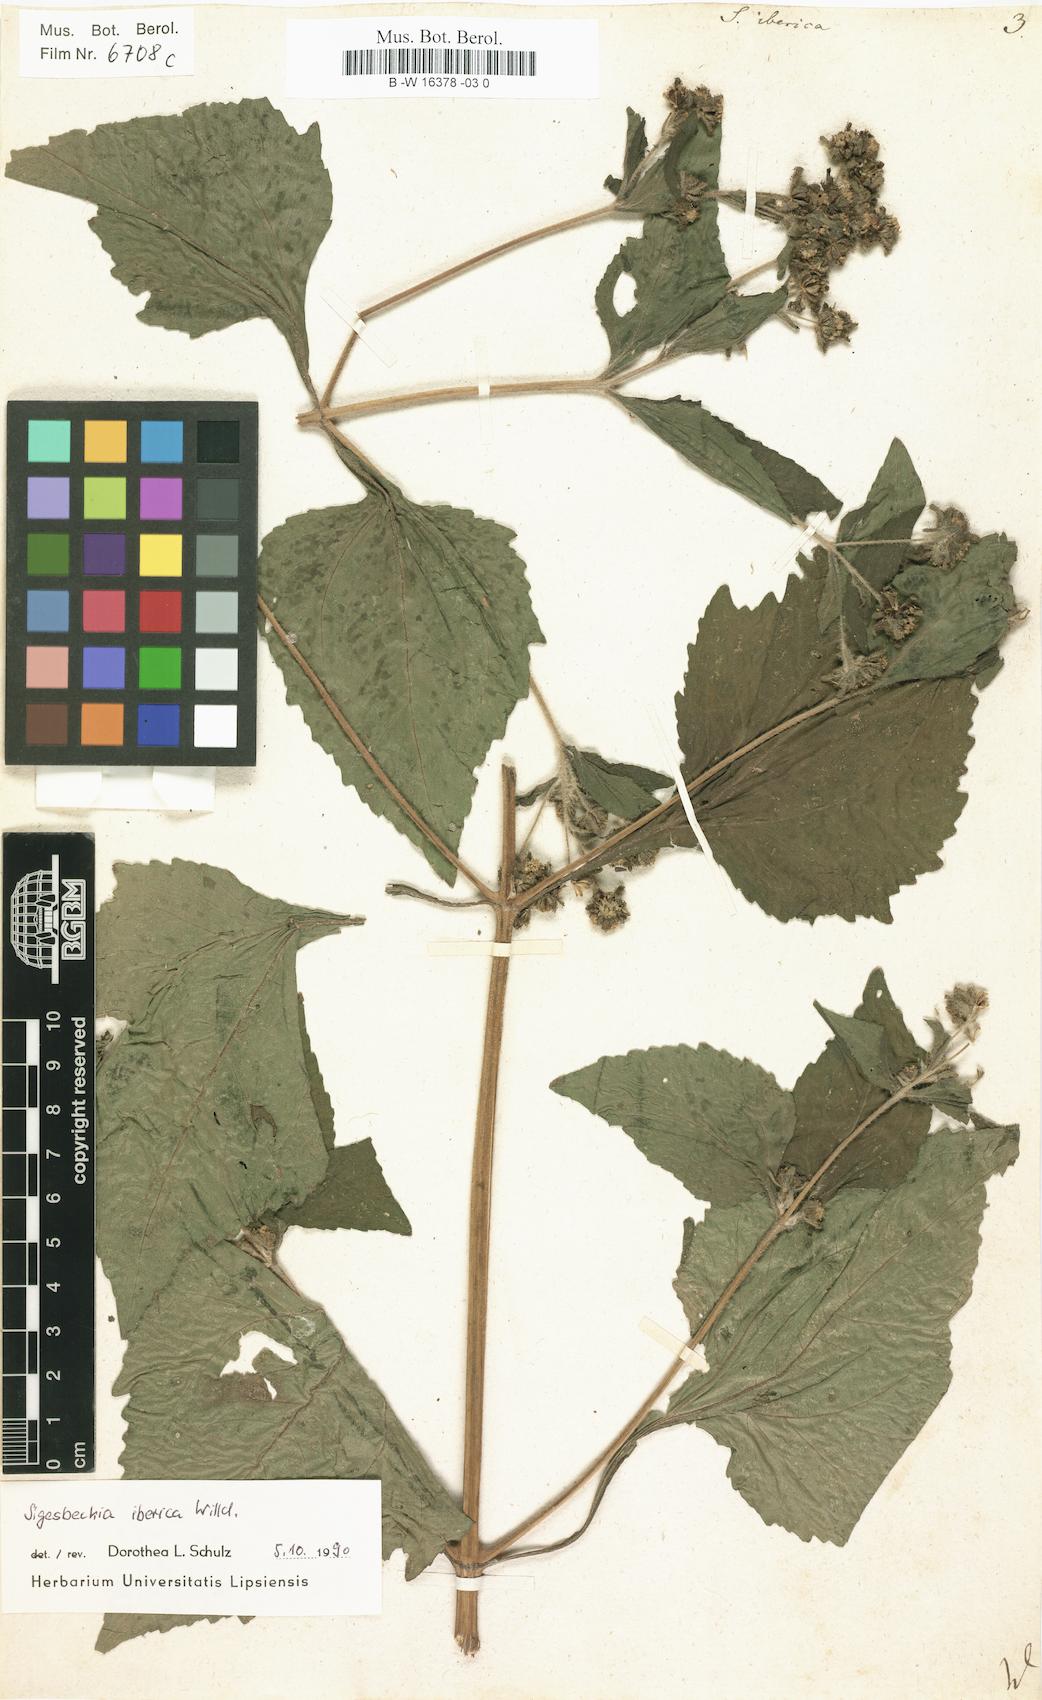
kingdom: Plantae
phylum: Tracheophyta
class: Magnoliopsida
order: Asterales
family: Asteraceae
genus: Siegesbeckia
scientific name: Siegesbeckia
